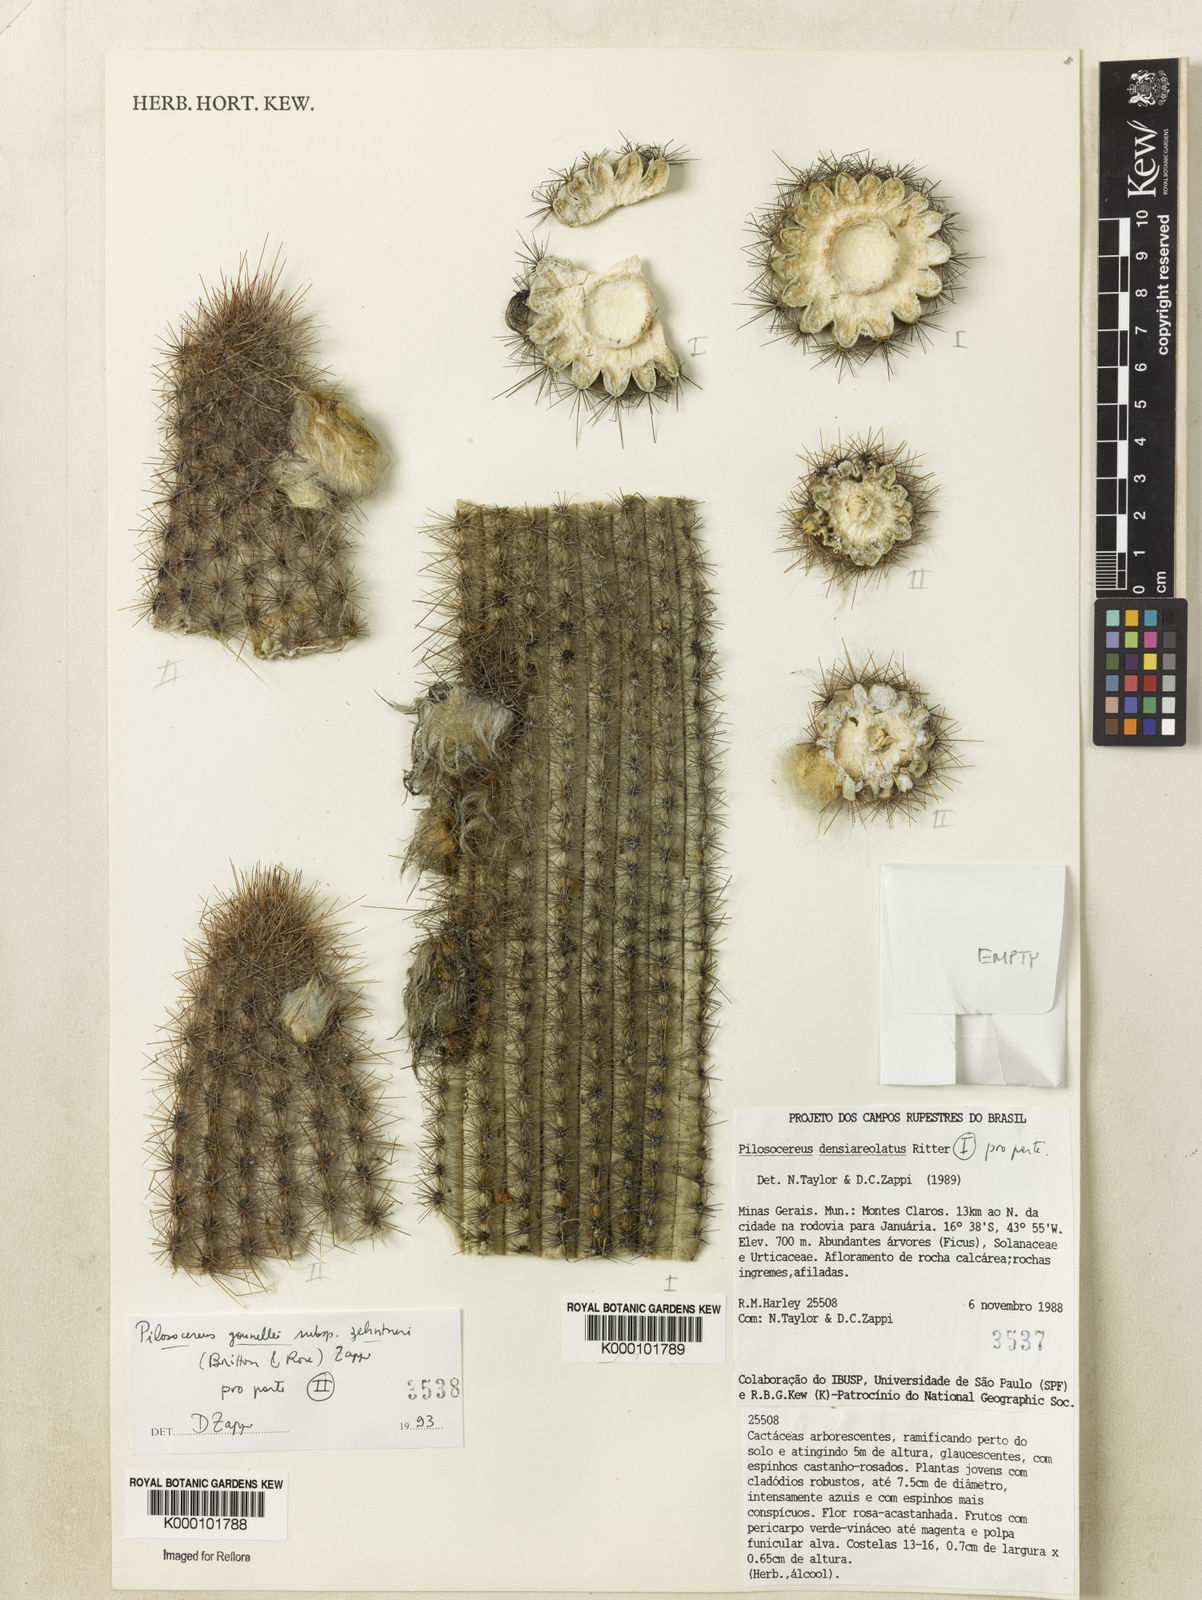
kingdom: Plantae
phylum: Tracheophyta
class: Magnoliopsida
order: Caryophyllales
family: Cactaceae
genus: Pilosocereus
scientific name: Pilosocereus densiareolatus
